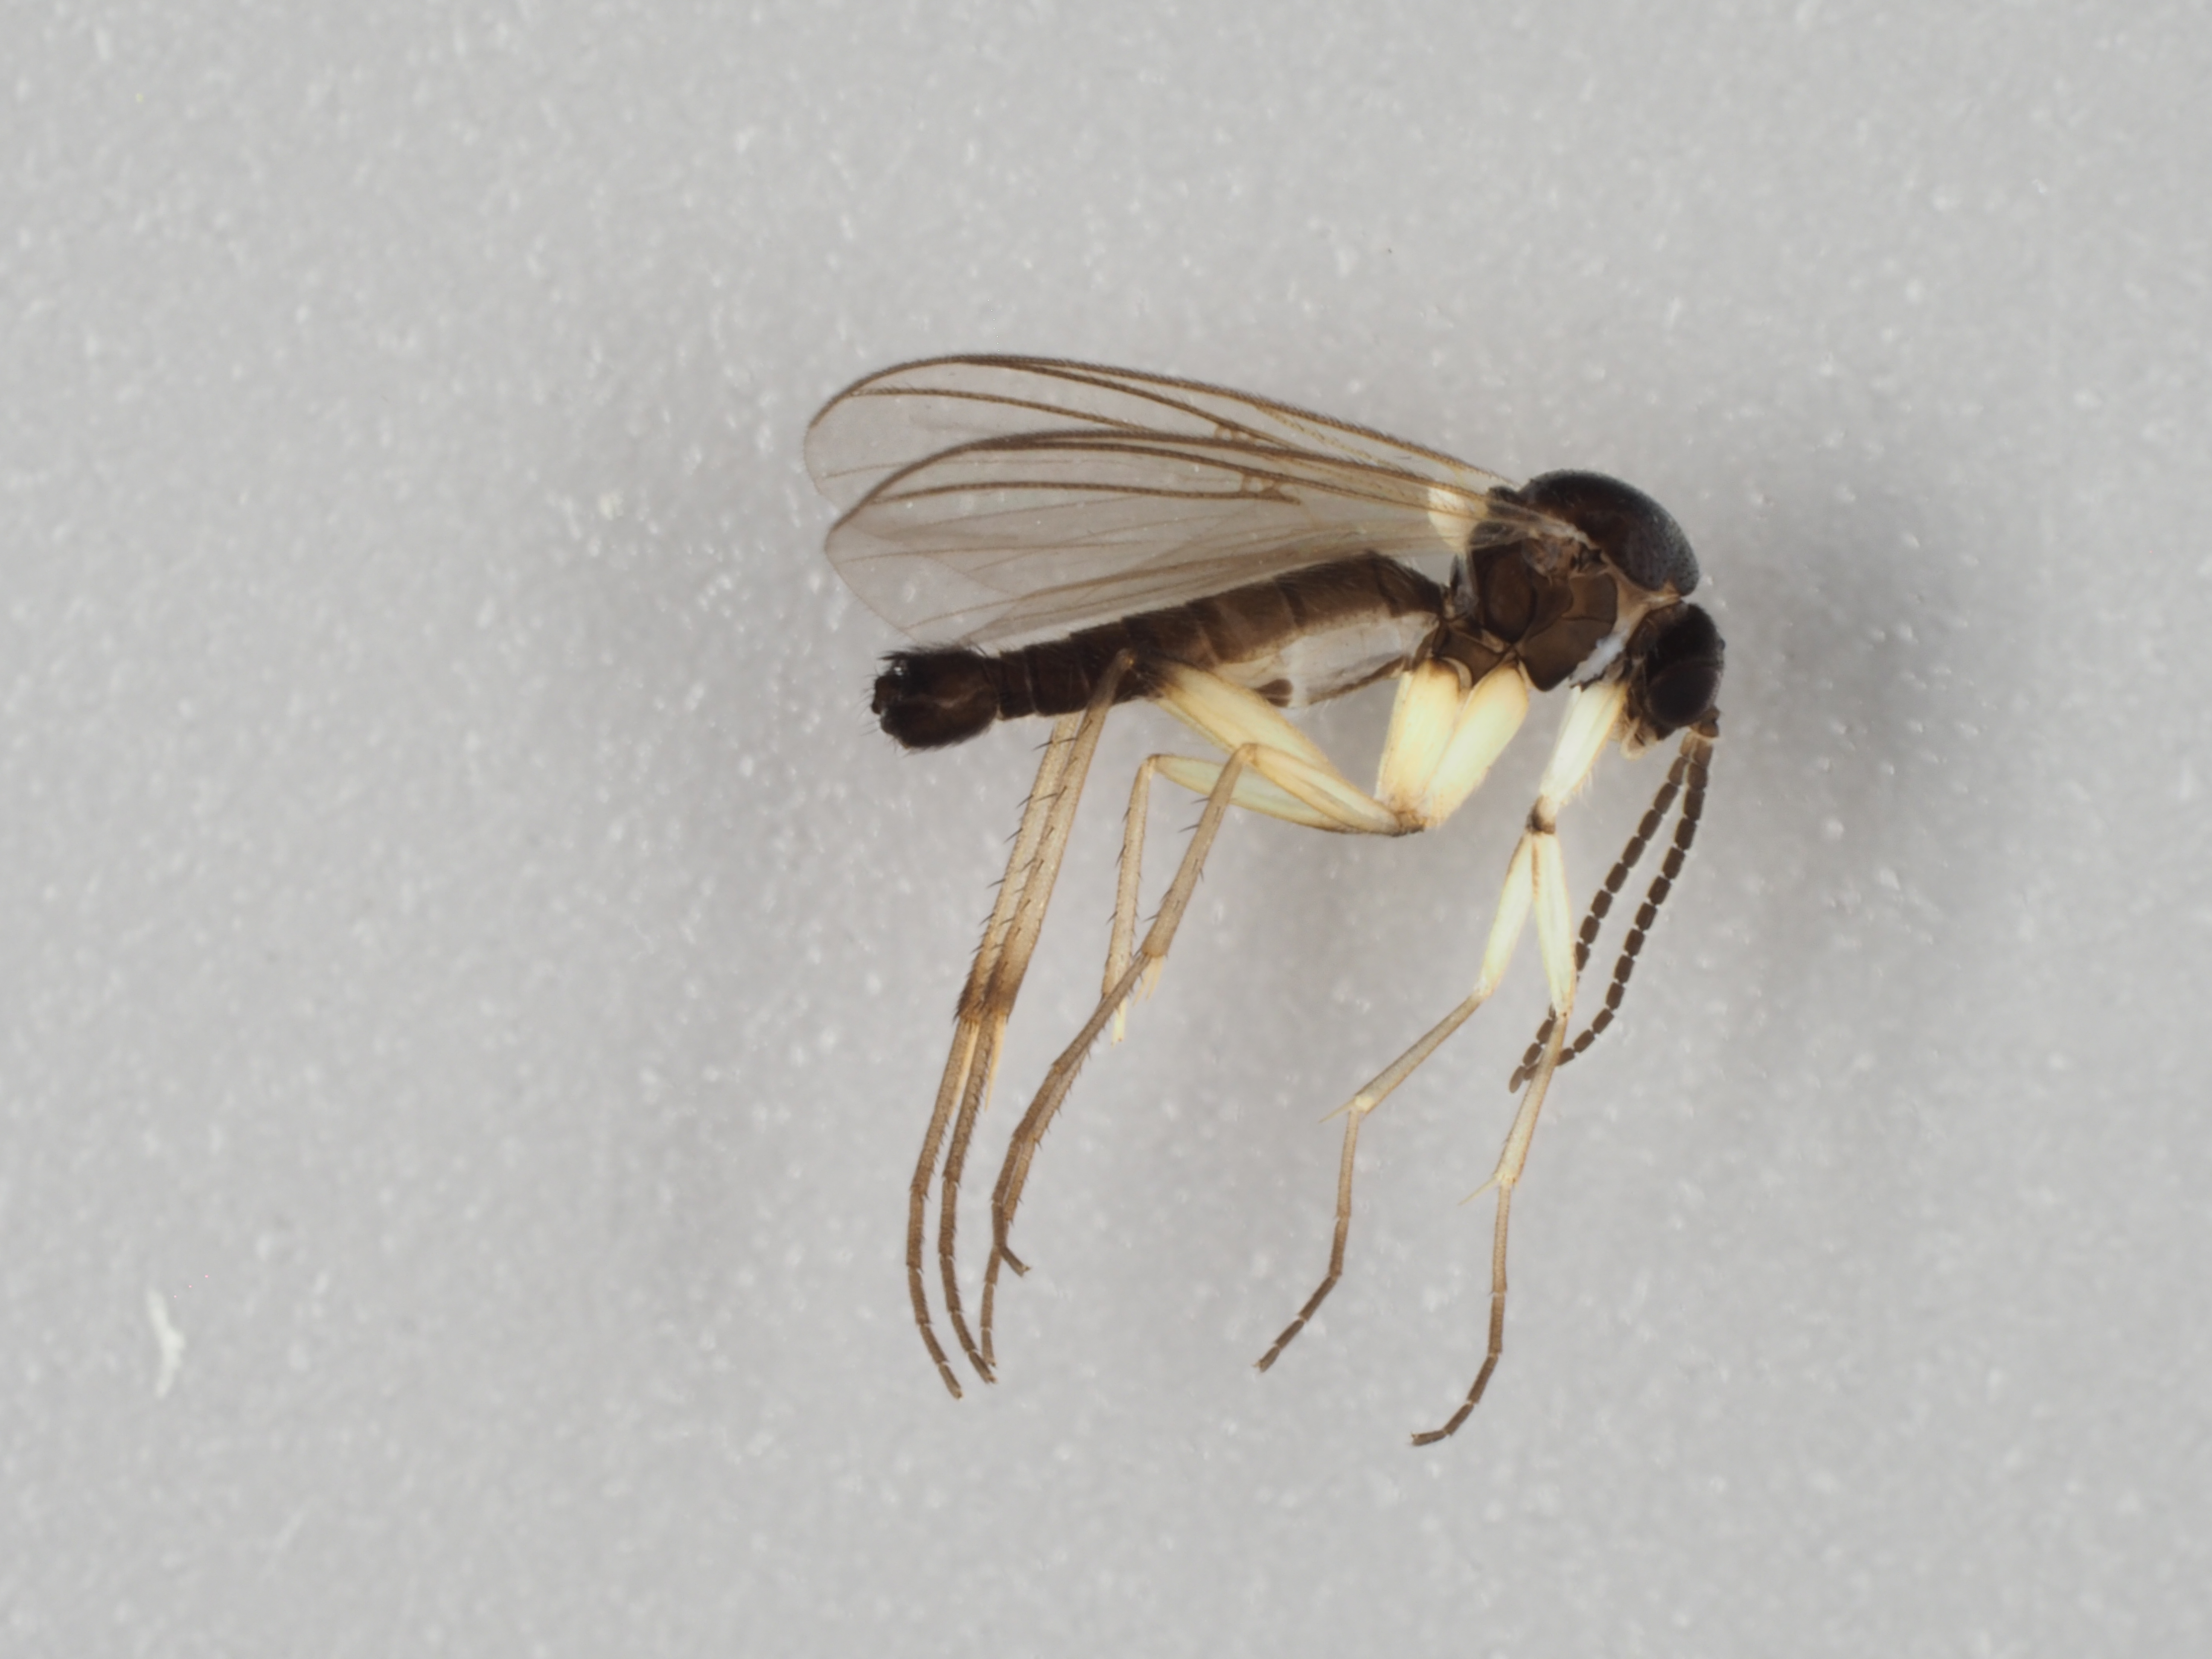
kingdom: Animalia
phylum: Arthropoda
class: Insecta
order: Diptera
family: Mycetophilidae
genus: Apolephthisa
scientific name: Apolephthisa subincana
